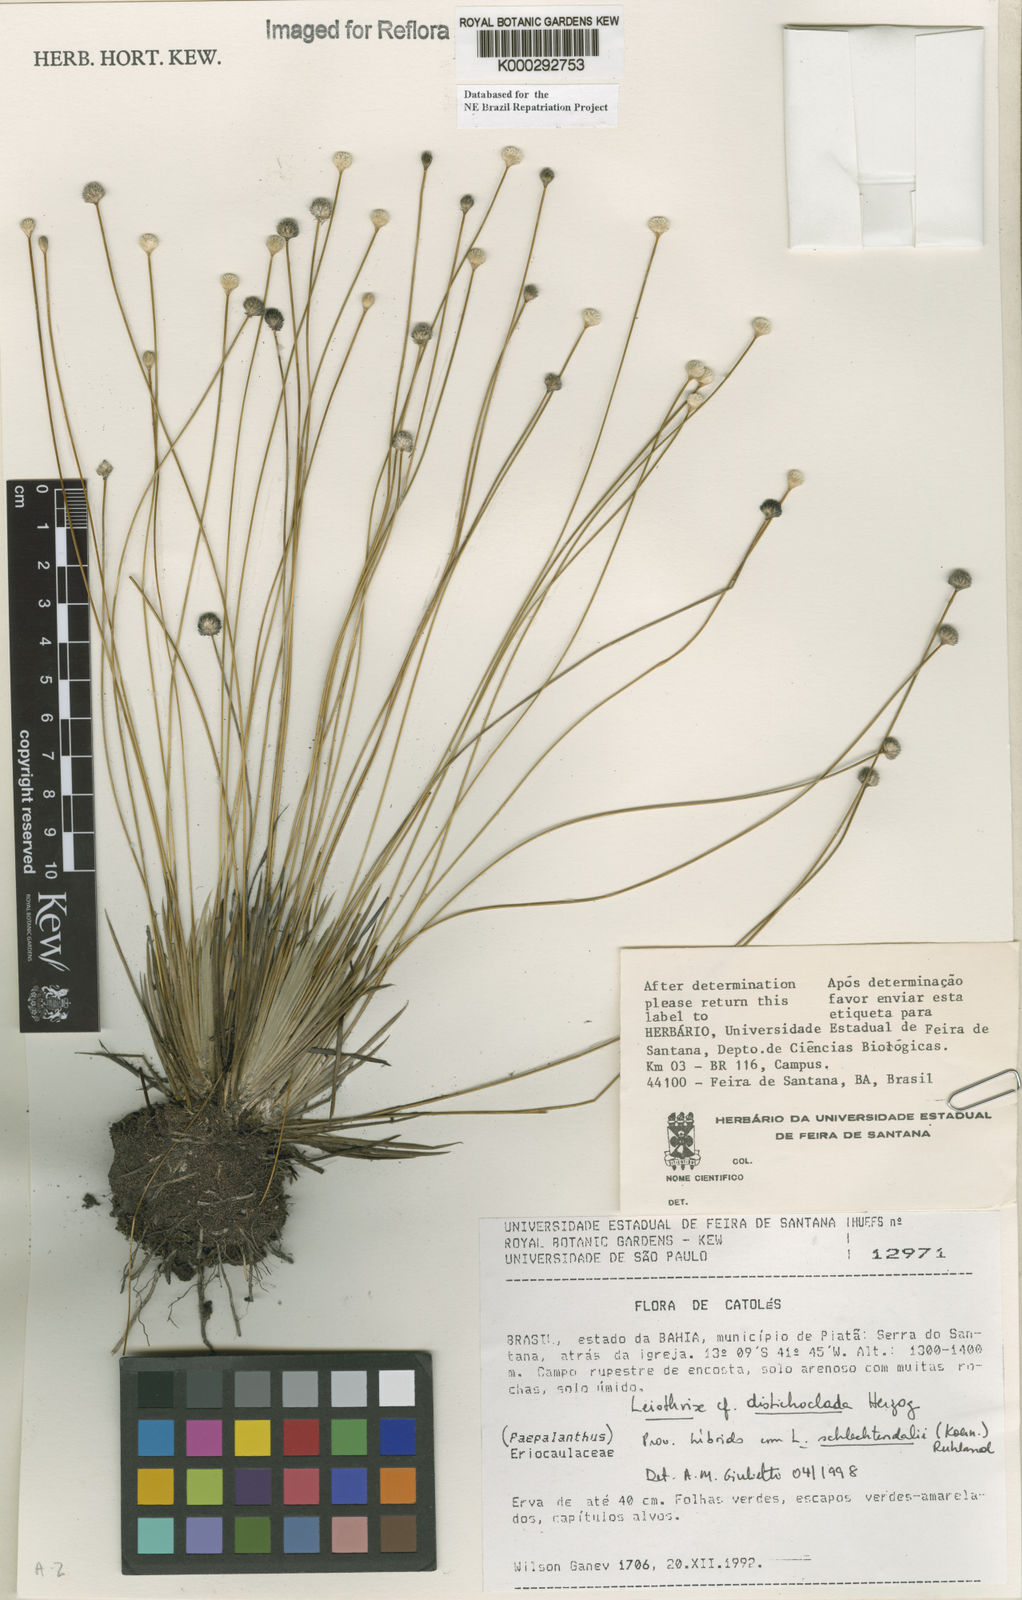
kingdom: Plantae
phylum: Tracheophyta
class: Liliopsida
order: Poales
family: Eriocaulaceae
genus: Leiothrix
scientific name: Leiothrix distichoclada
